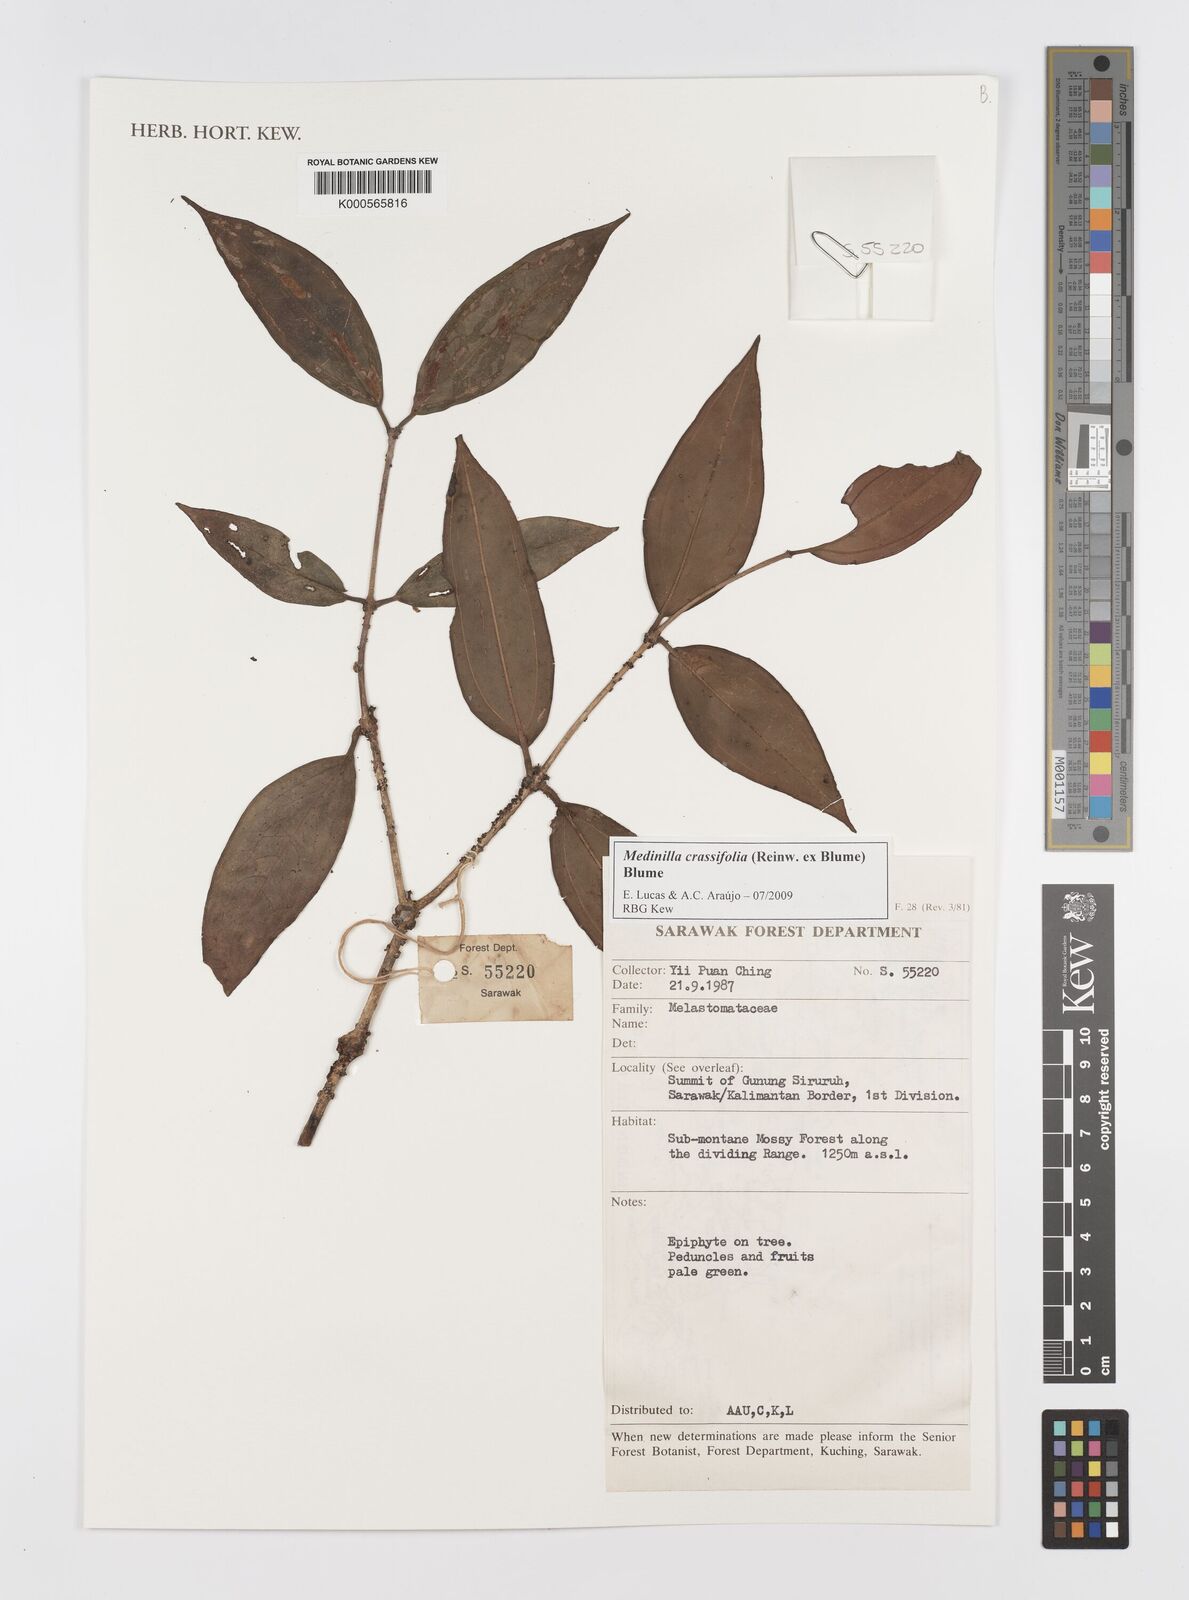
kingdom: Plantae
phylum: Tracheophyta
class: Magnoliopsida
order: Myrtales
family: Melastomataceae
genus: Medinilla
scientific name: Medinilla crassifolia
